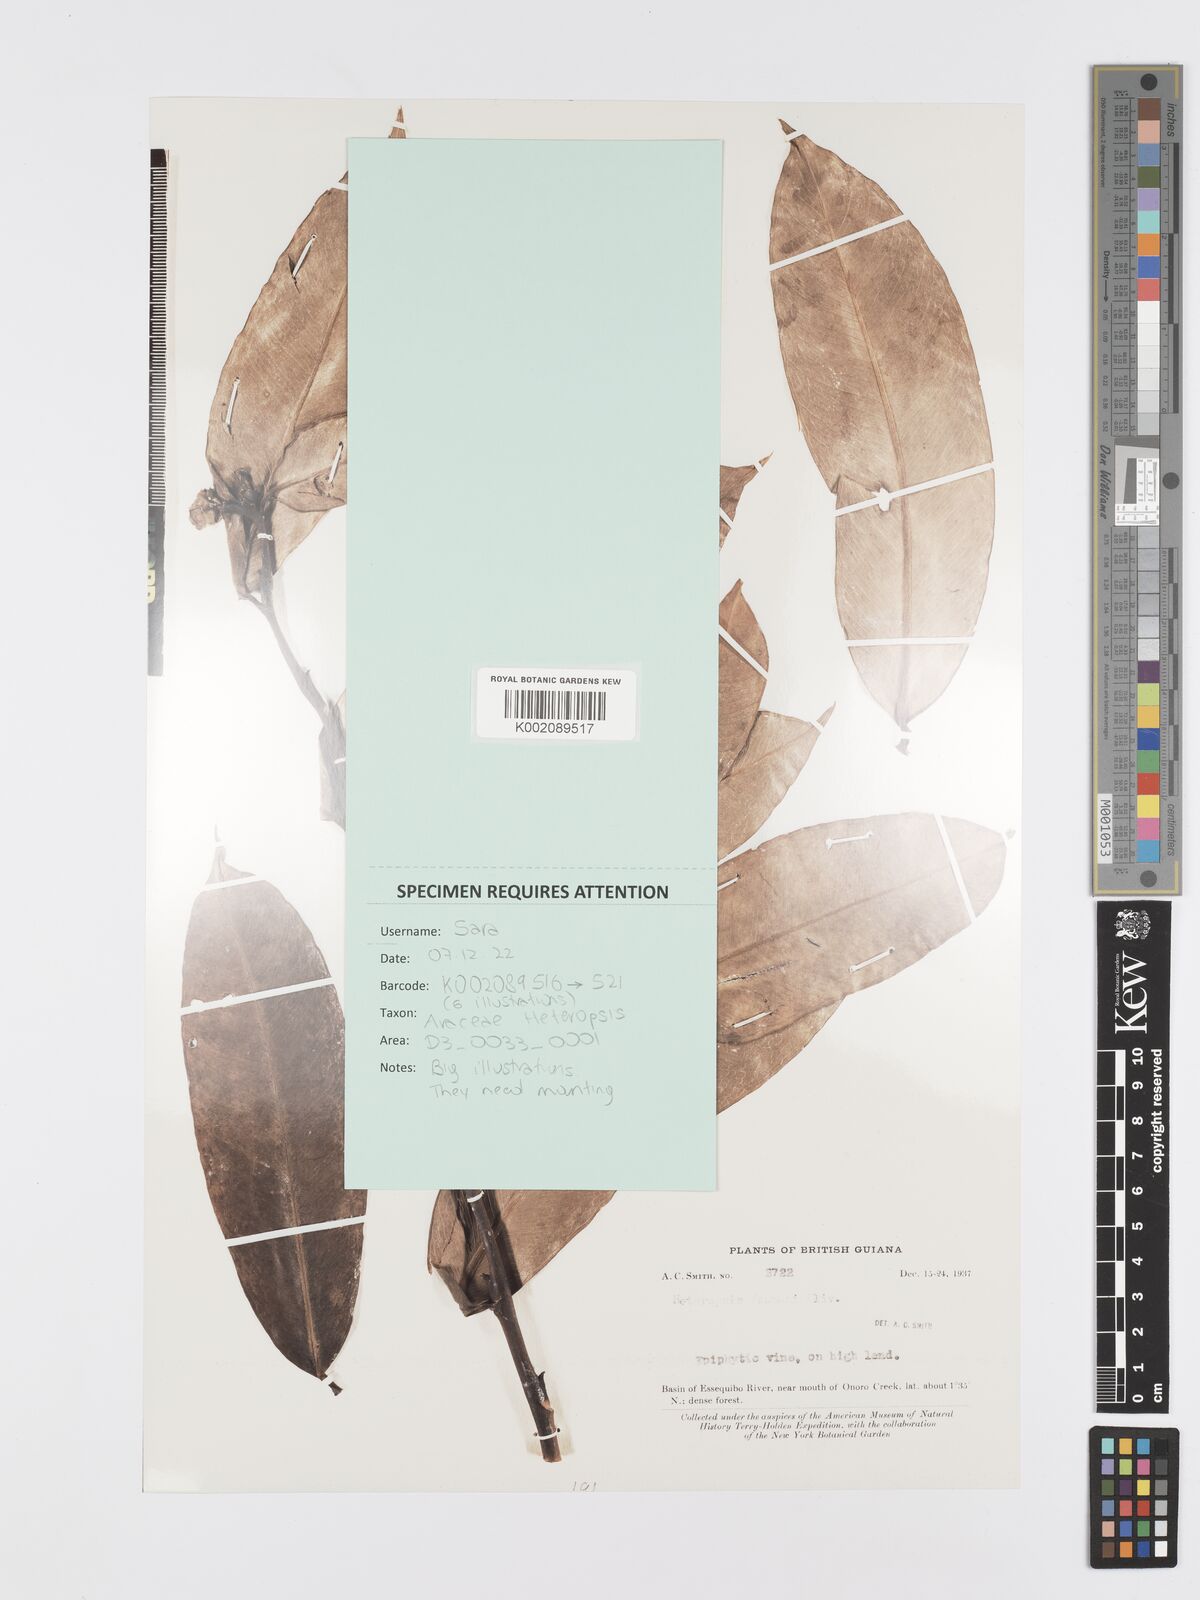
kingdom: Plantae
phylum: Tracheophyta
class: Liliopsida
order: Alismatales
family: Araceae
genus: Heteropsis
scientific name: Heteropsis flexuosa
